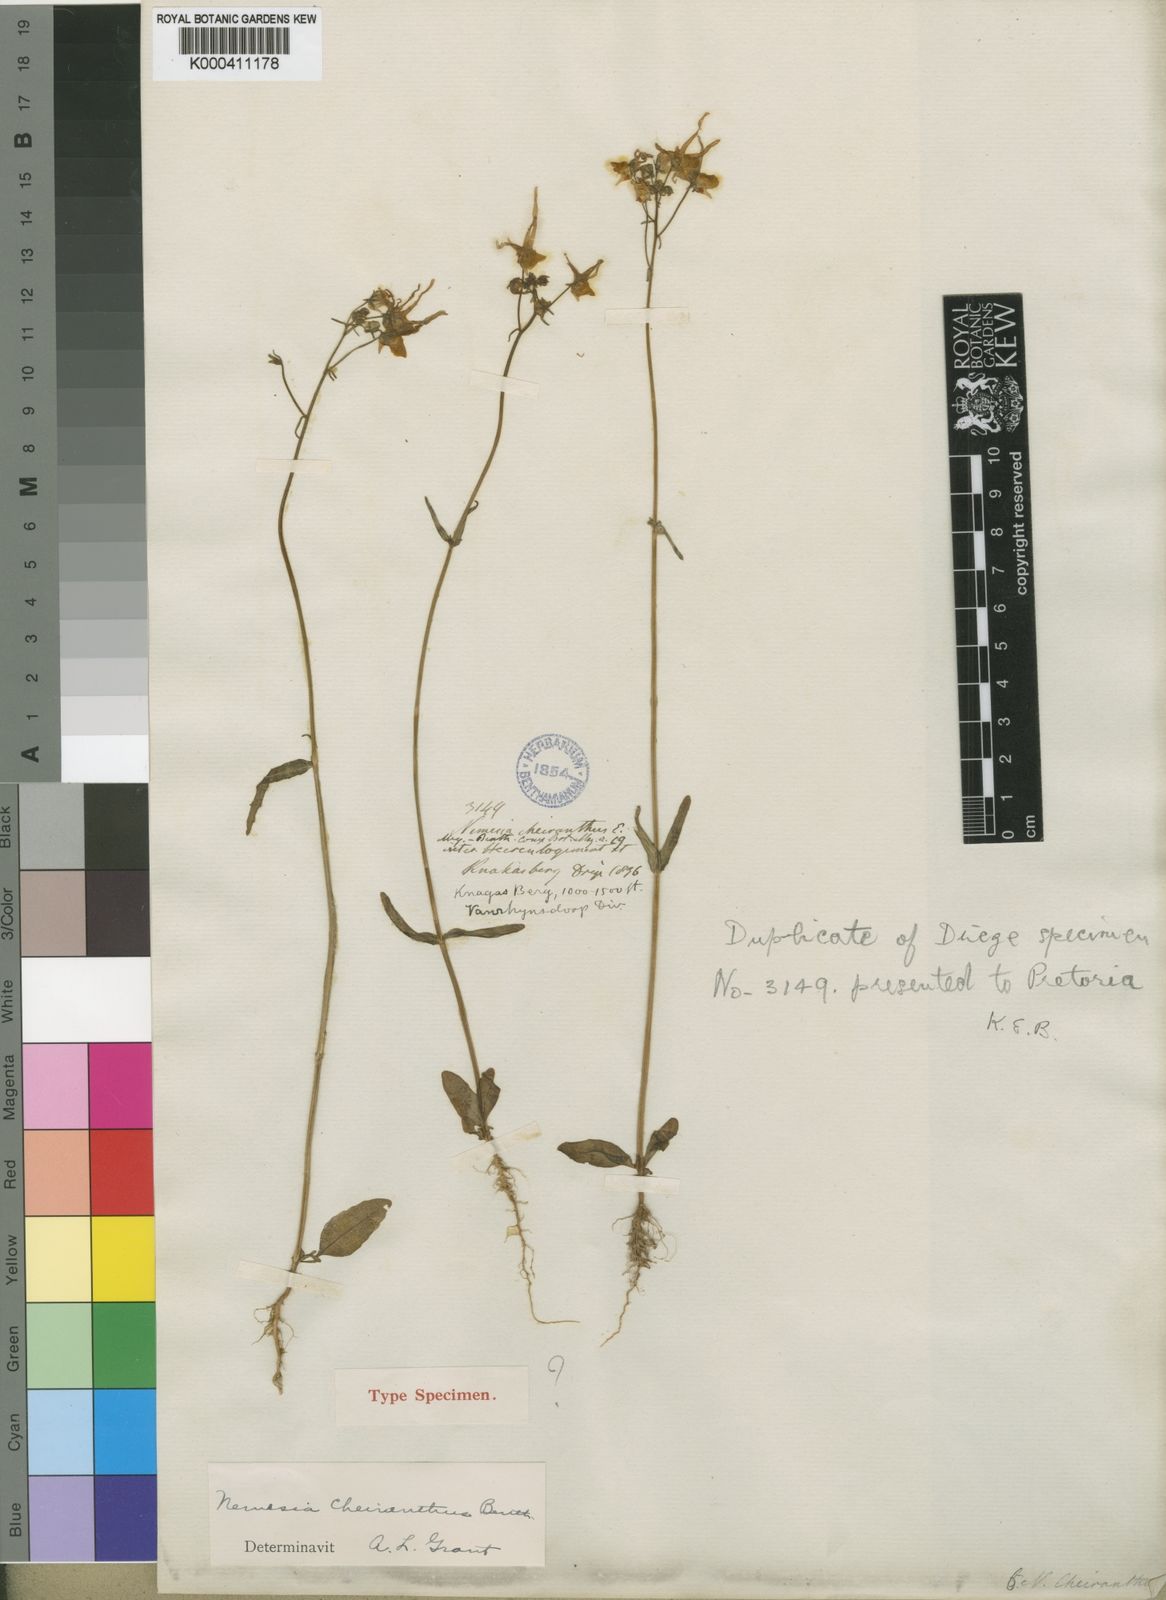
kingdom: Plantae
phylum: Tracheophyta
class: Magnoliopsida
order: Lamiales
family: Scrophulariaceae
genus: Nemesia
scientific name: Nemesia cheiranthus
